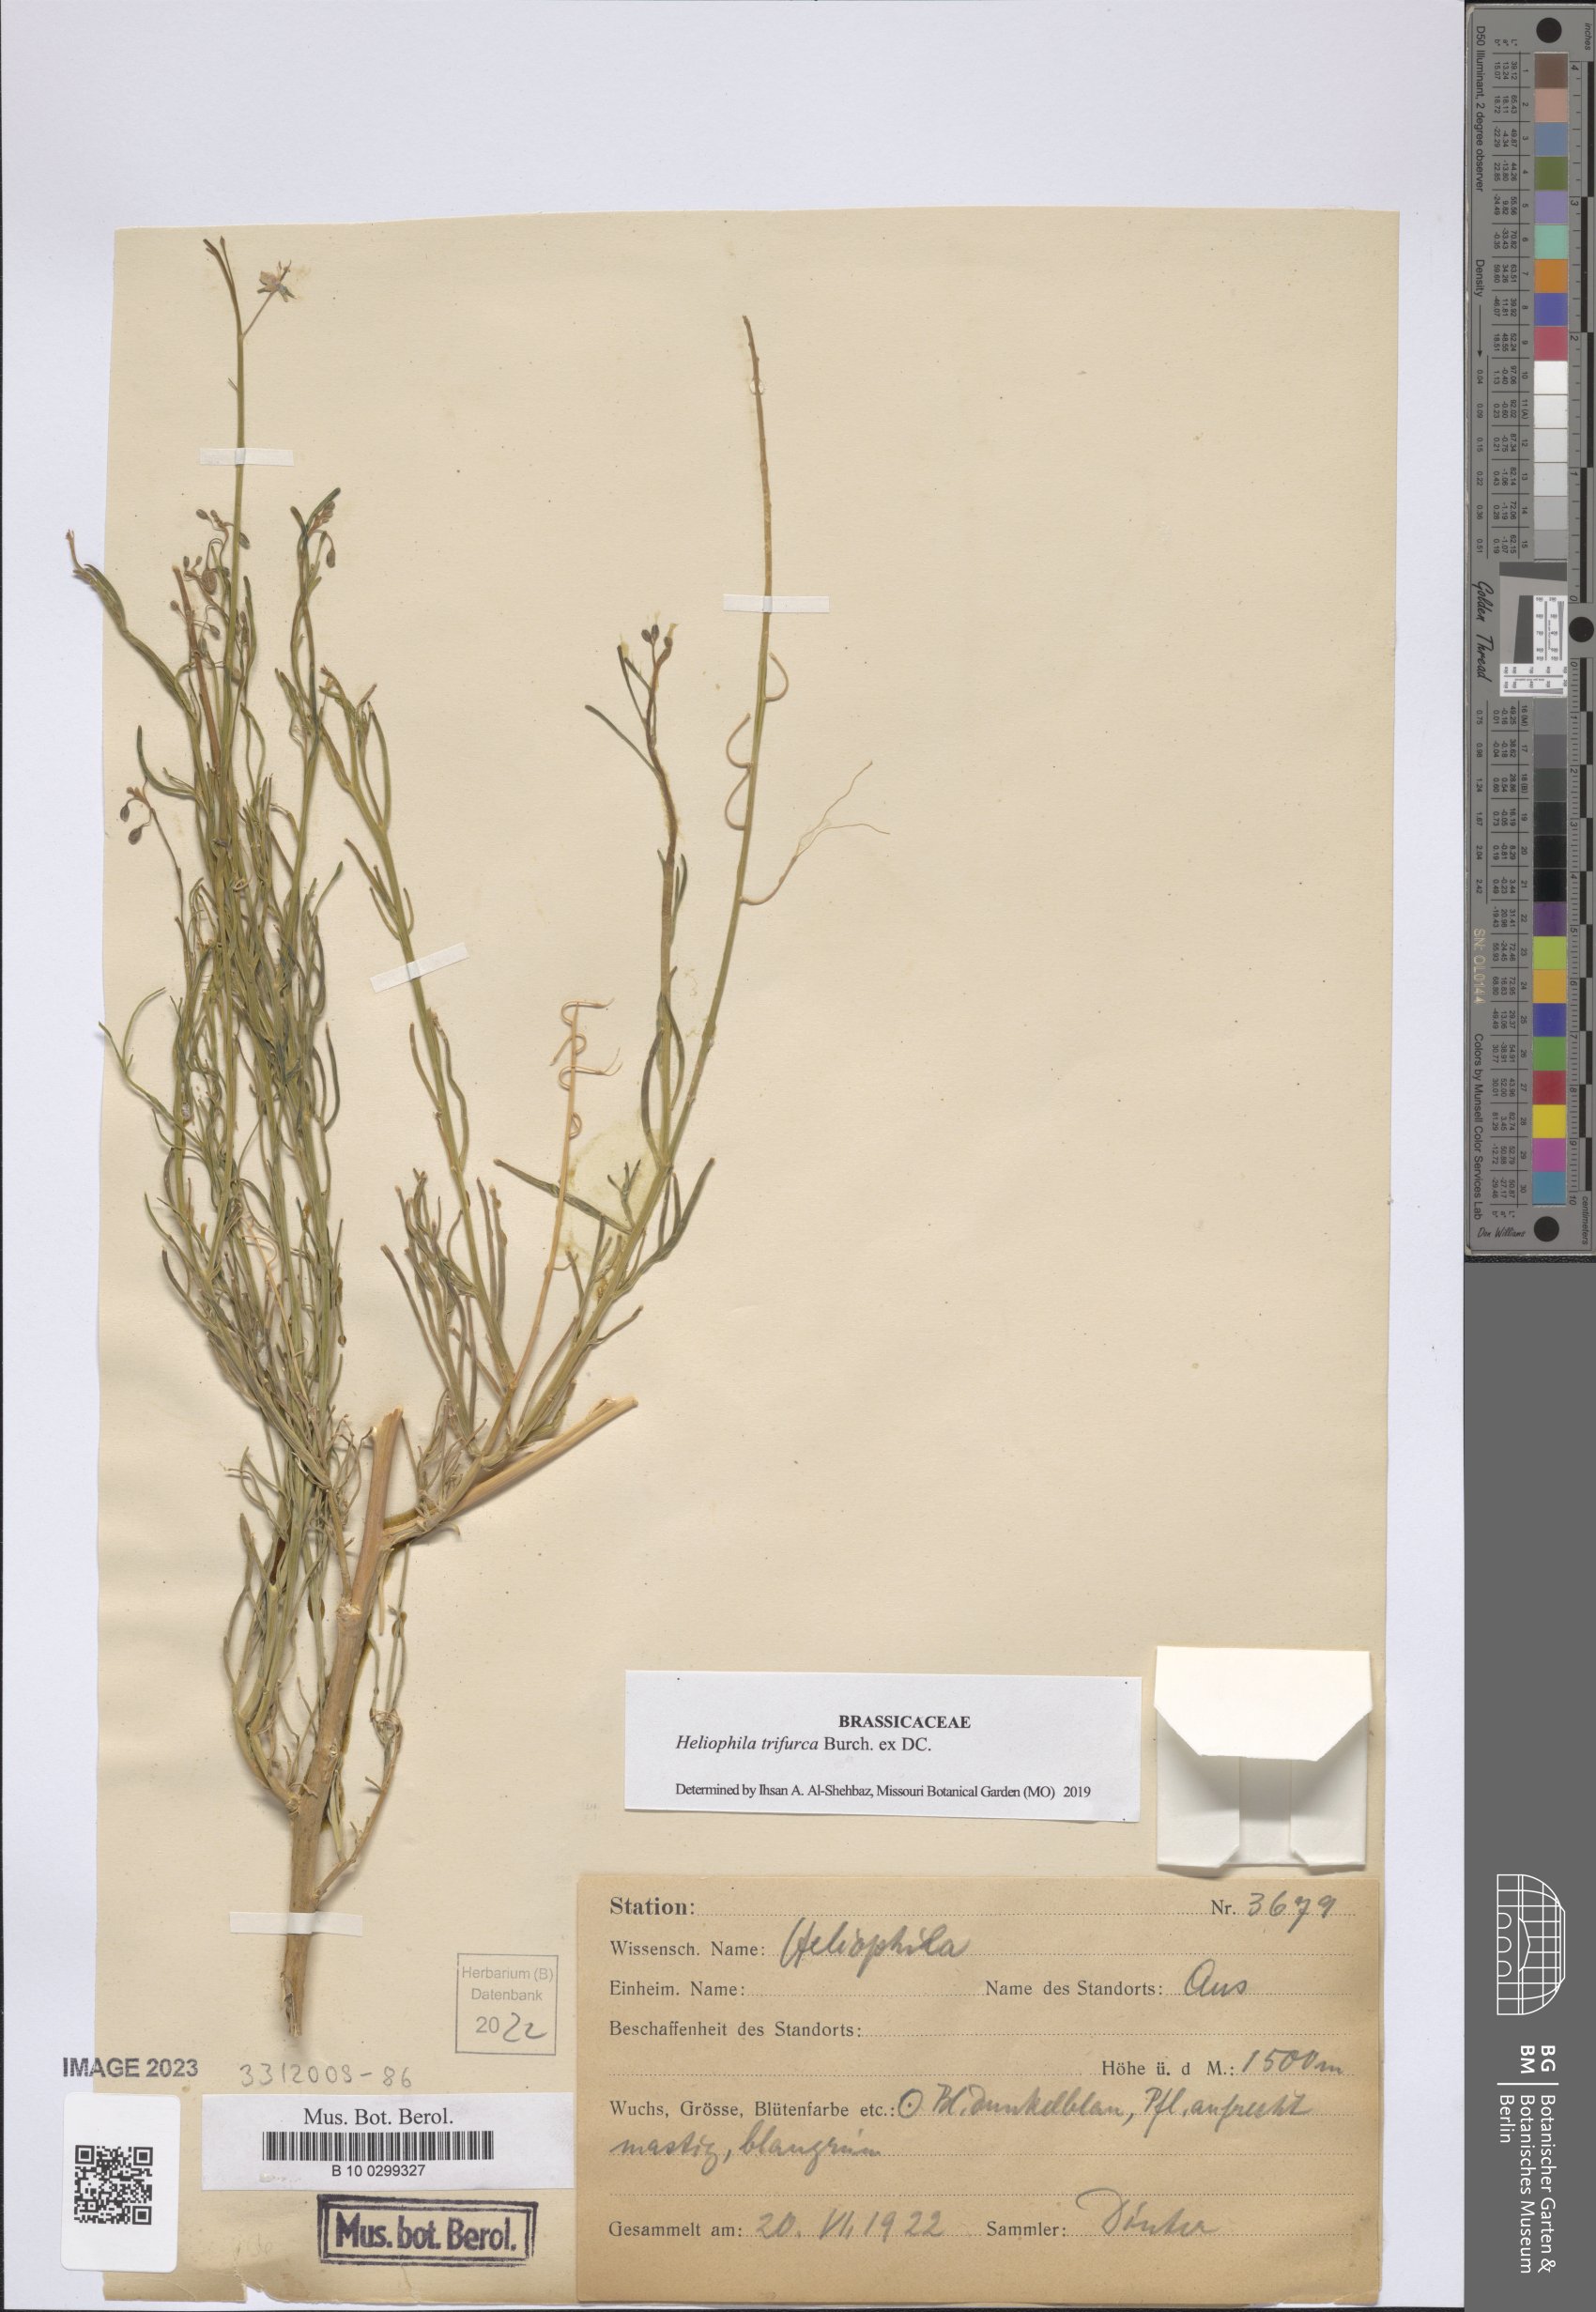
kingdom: Plantae
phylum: Tracheophyta
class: Magnoliopsida
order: Brassicales
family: Brassicaceae
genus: Heliophila
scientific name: Heliophila trifurca
